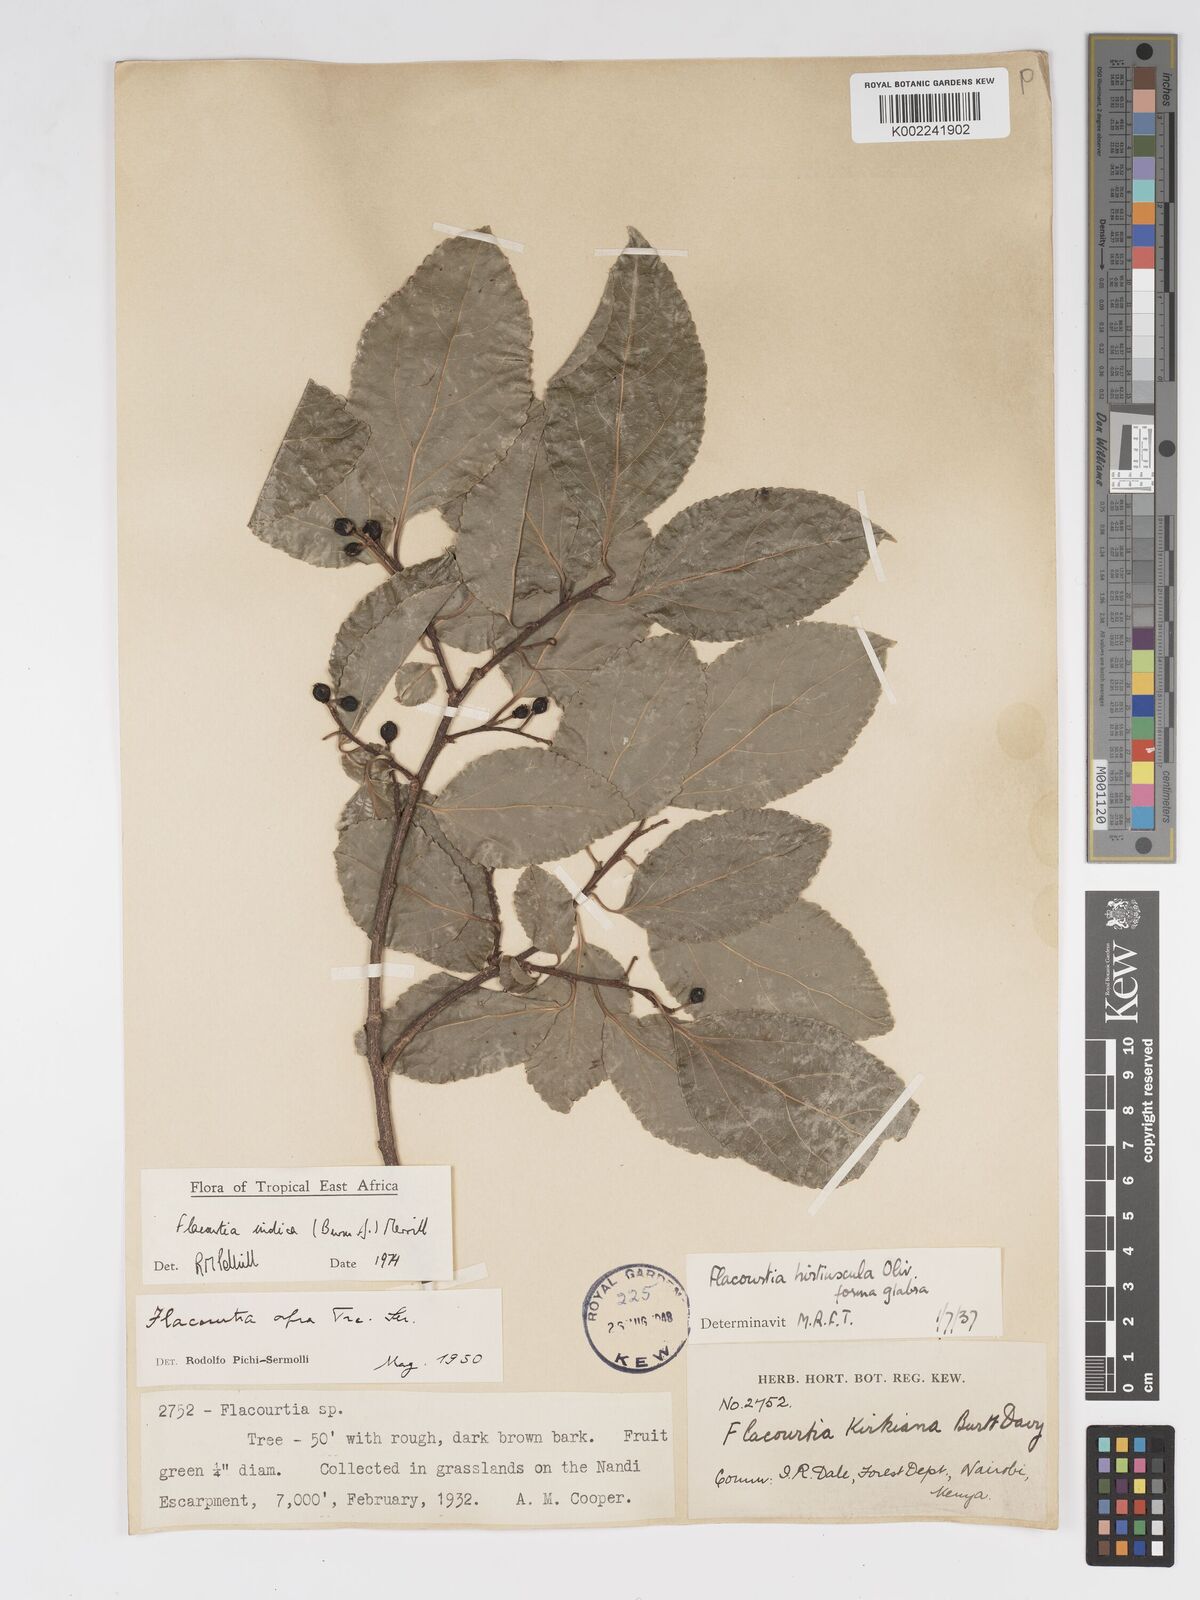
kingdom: Plantae
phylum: Tracheophyta
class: Magnoliopsida
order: Malpighiales
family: Salicaceae
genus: Flacourtia
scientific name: Flacourtia indica
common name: Governor's plum
